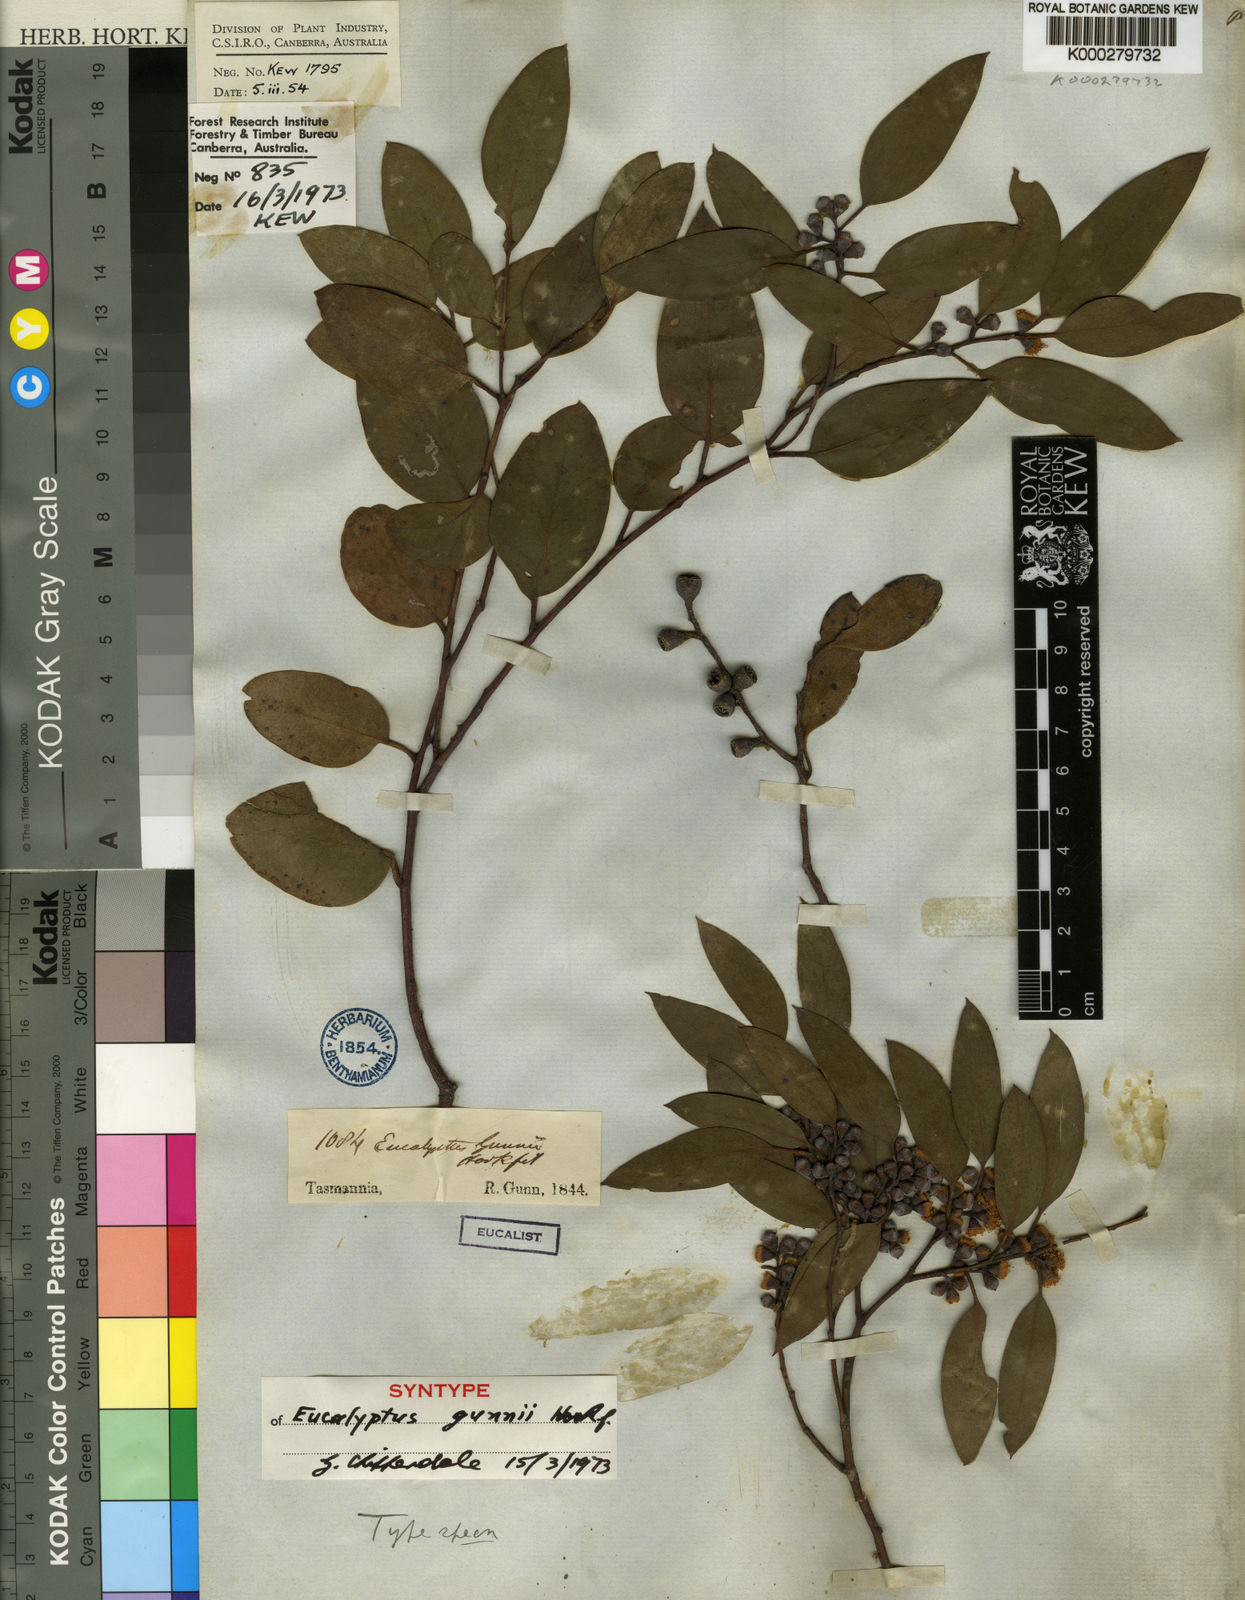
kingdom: Plantae
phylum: Tracheophyta
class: Magnoliopsida
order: Myrtales
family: Myrtaceae
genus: Eucalyptus
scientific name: Eucalyptus gunnii
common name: Cider gum
